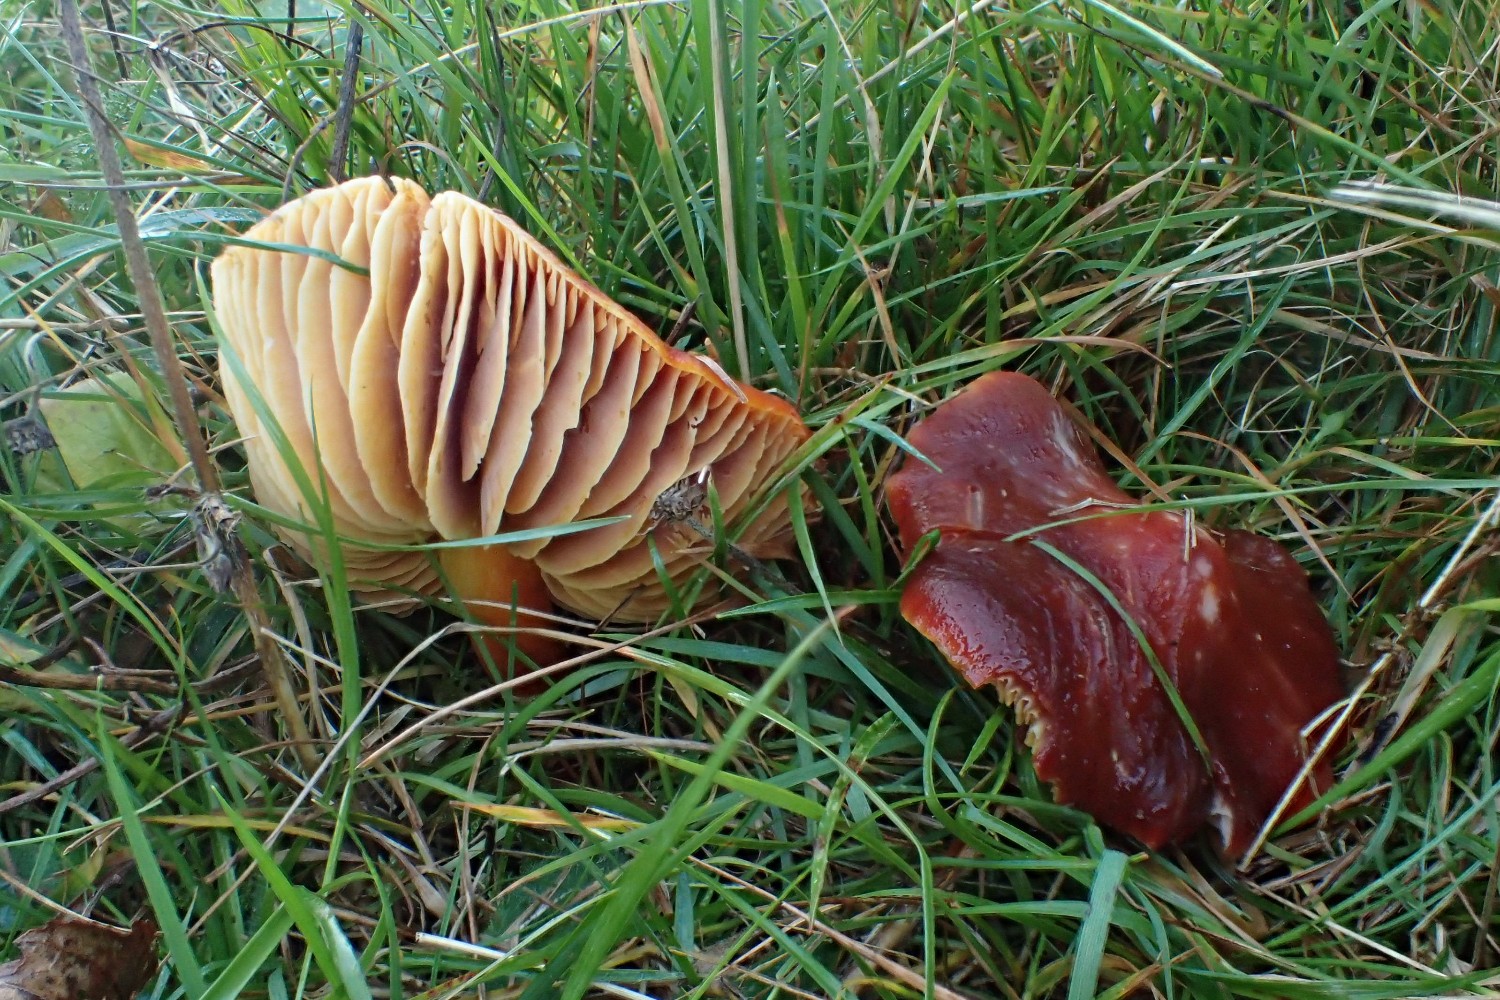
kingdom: Fungi
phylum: Basidiomycota
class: Agaricomycetes
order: Agaricales
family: Hygrophoraceae
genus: Hygrocybe
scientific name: Hygrocybe punicea
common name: skarlagen-vokshat
